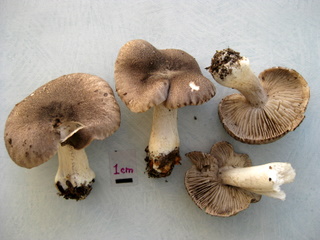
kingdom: Fungi
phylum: Basidiomycota
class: Agaricomycetes
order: Agaricales
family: Tricholomataceae
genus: Tricholoma
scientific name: Tricholoma orirubens
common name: rødbladet ridderhat
